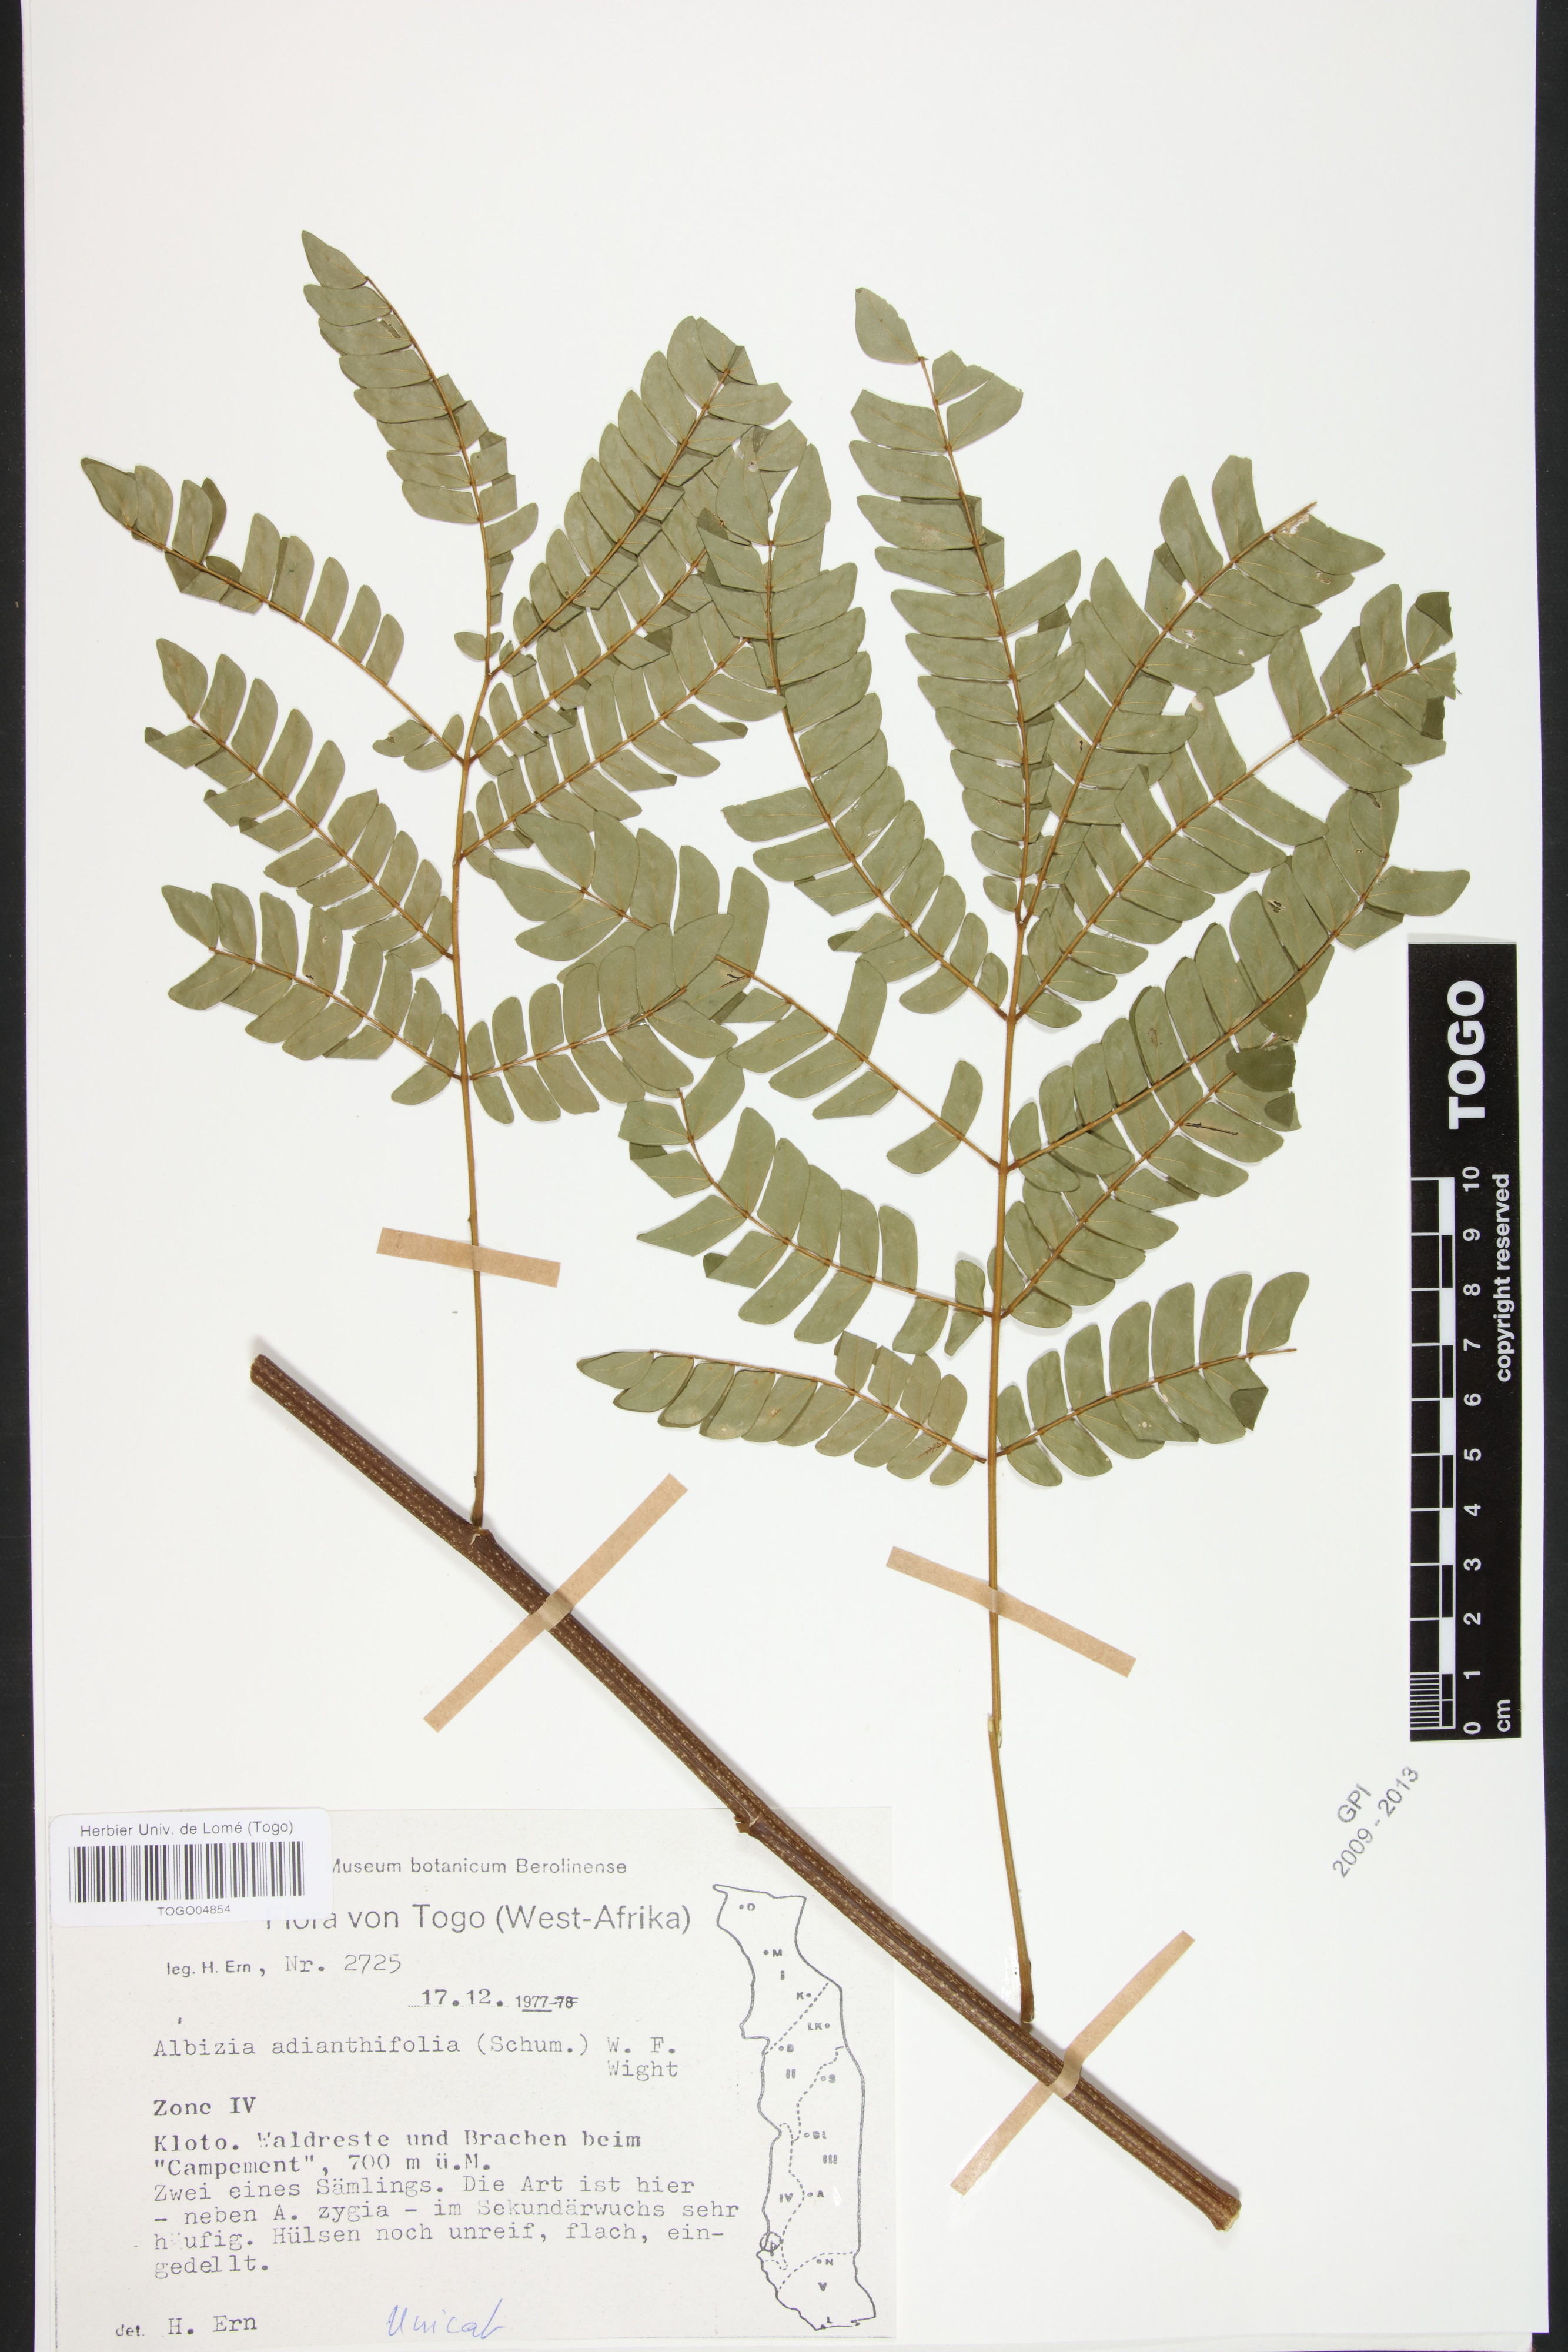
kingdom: Plantae
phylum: Tracheophyta
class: Magnoliopsida
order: Fabales
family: Fabaceae
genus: Albizia
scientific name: Albizia adianthifolia
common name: West african albizia
